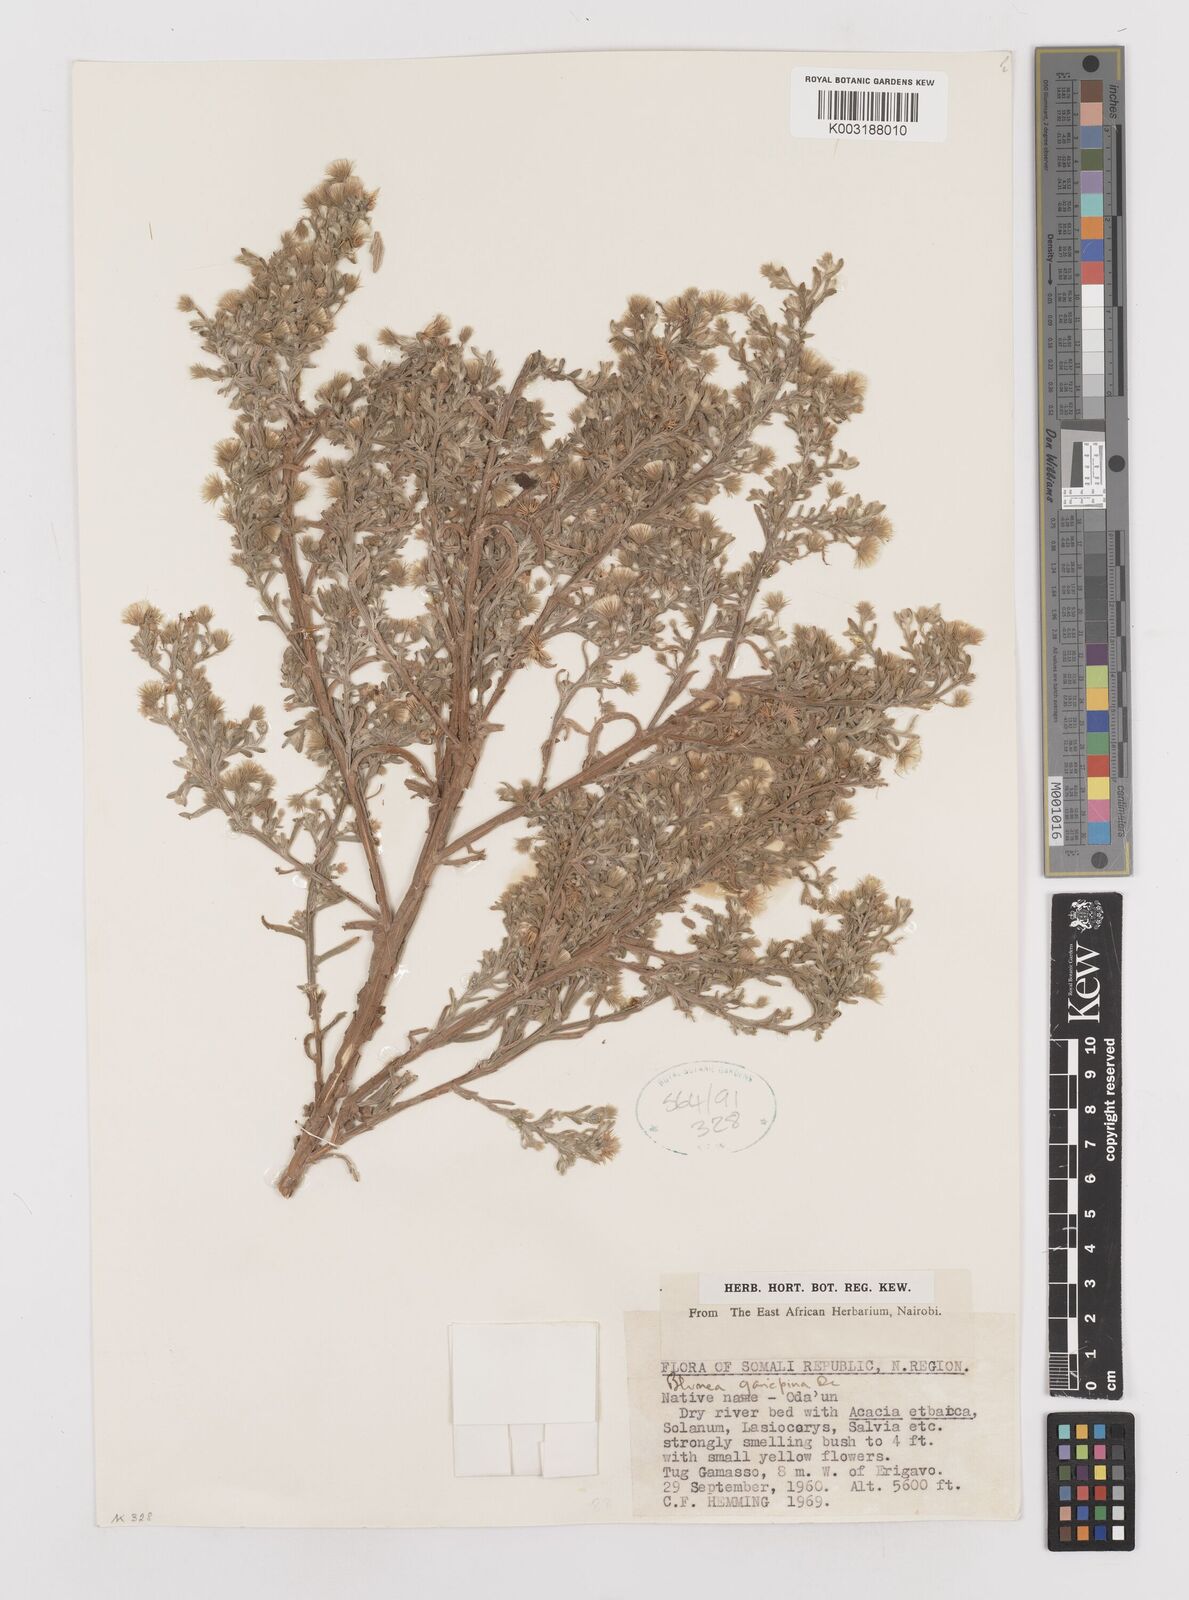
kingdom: Plantae
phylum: Tracheophyta
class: Magnoliopsida
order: Asterales
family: Asteraceae
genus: Laggera
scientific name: Laggera
